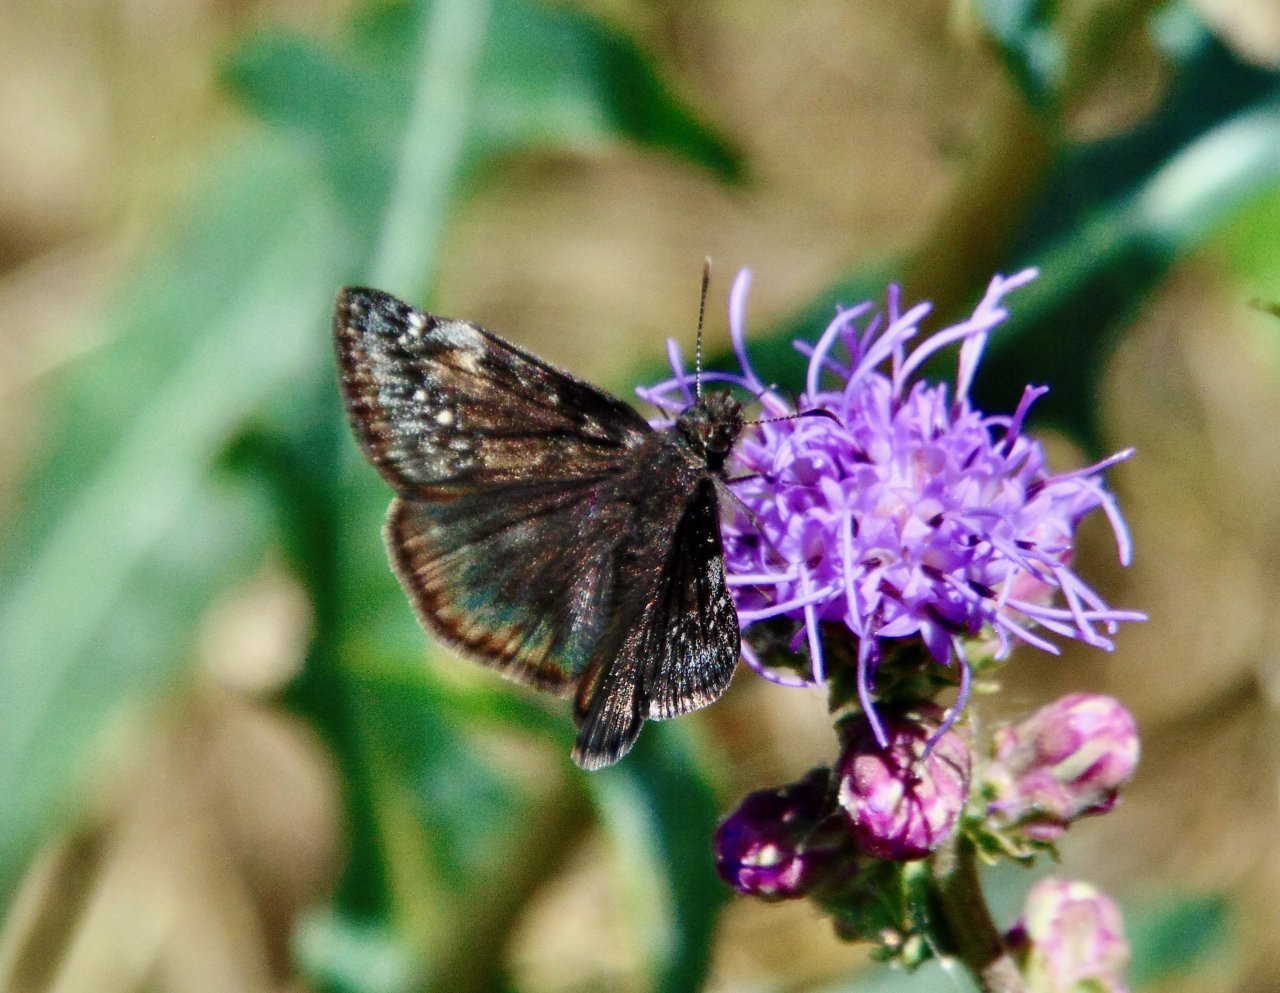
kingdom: Animalia
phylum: Arthropoda
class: Insecta
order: Lepidoptera
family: Hesperiidae
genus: Gesta
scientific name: Gesta
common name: Wild Indigo Duskywing
